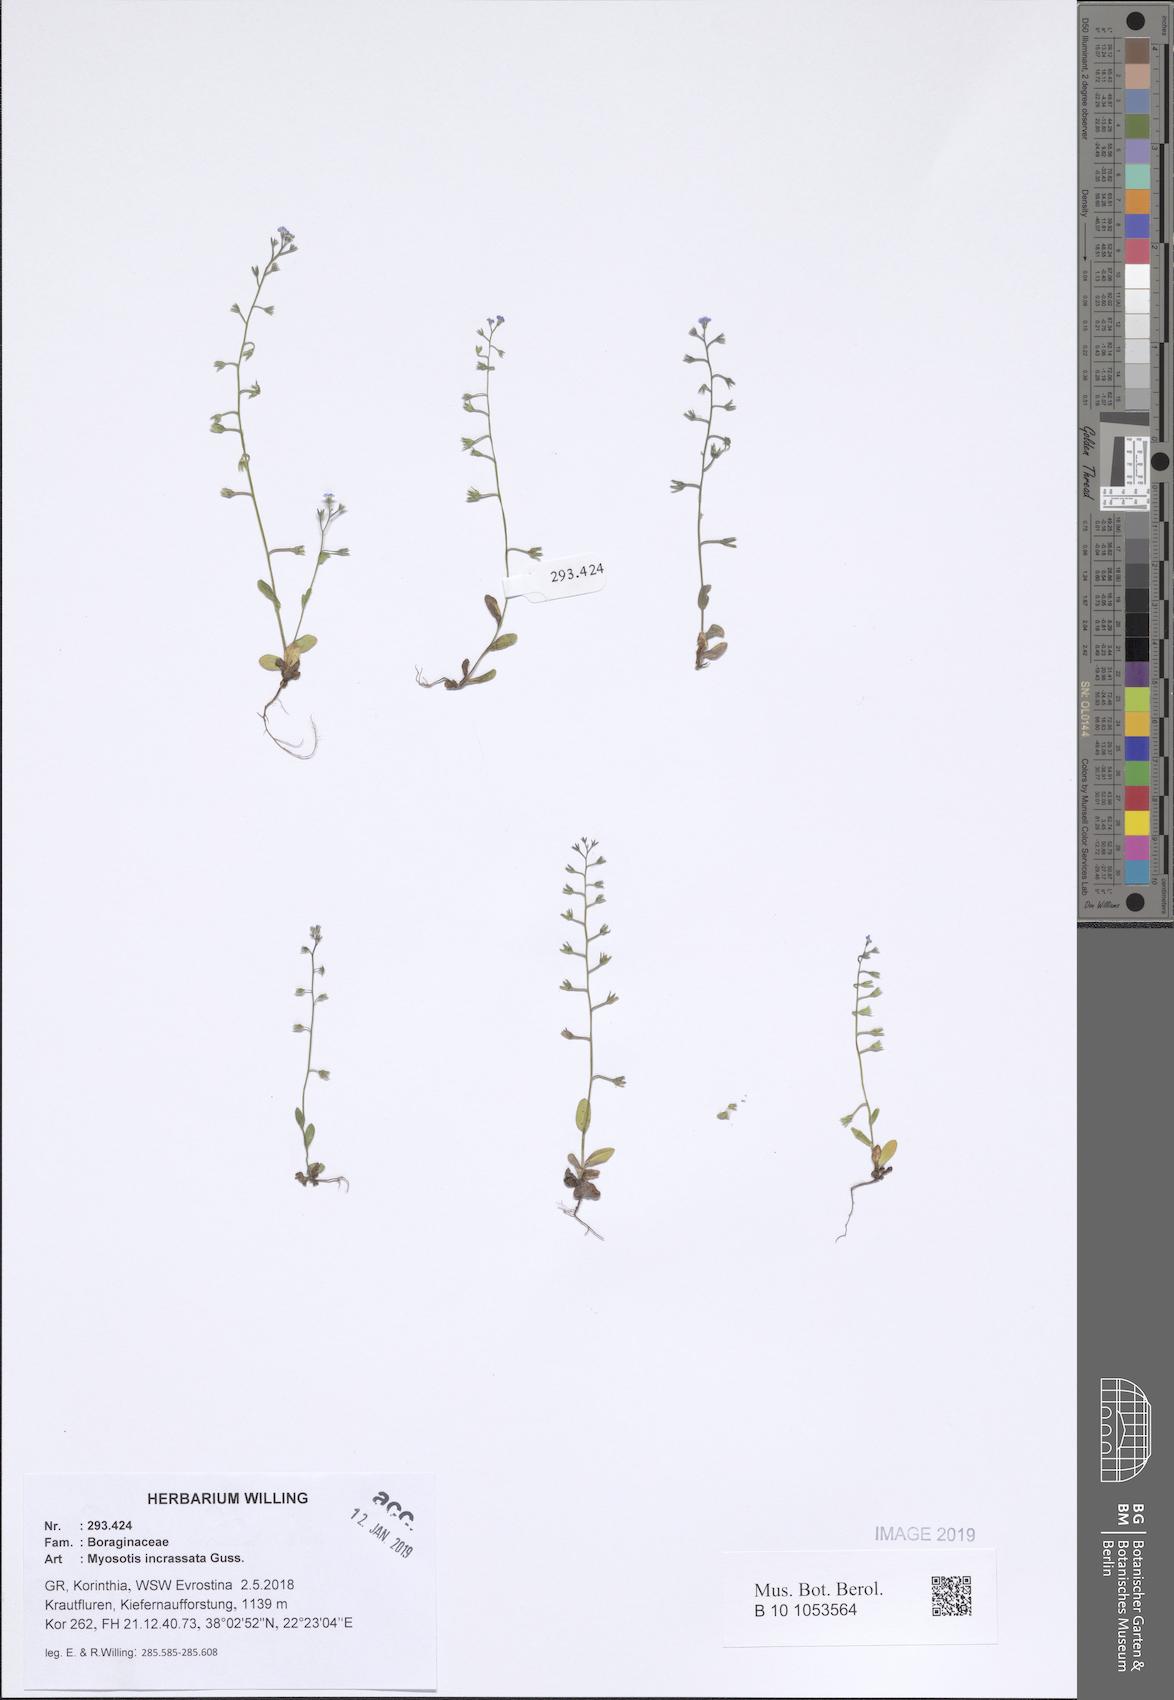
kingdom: Plantae
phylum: Tracheophyta
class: Magnoliopsida
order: Boraginales
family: Boraginaceae
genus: Myosotis
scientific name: Myosotis incrassata
